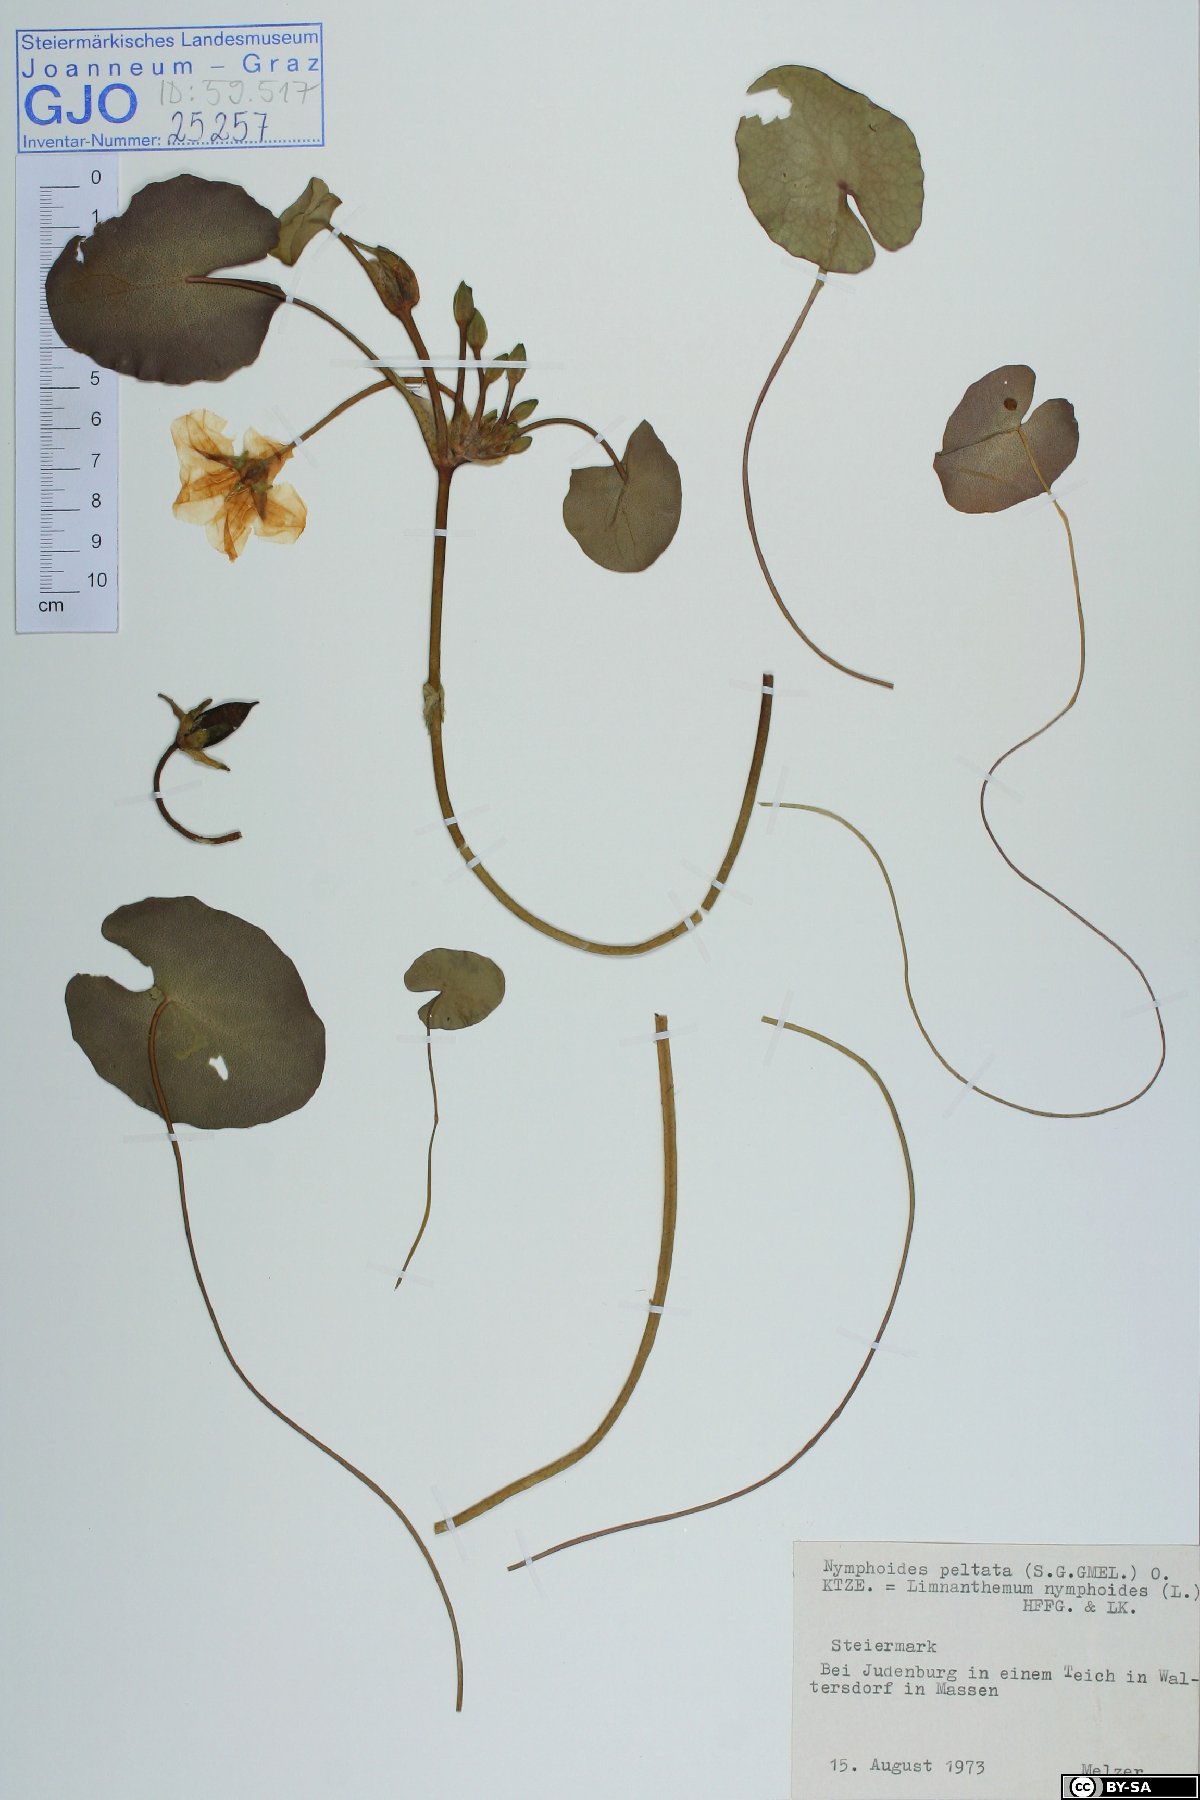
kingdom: Plantae
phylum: Tracheophyta
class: Magnoliopsida
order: Asterales
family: Menyanthaceae
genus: Nymphoides
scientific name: Nymphoides peltata
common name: Fringed water-lily
